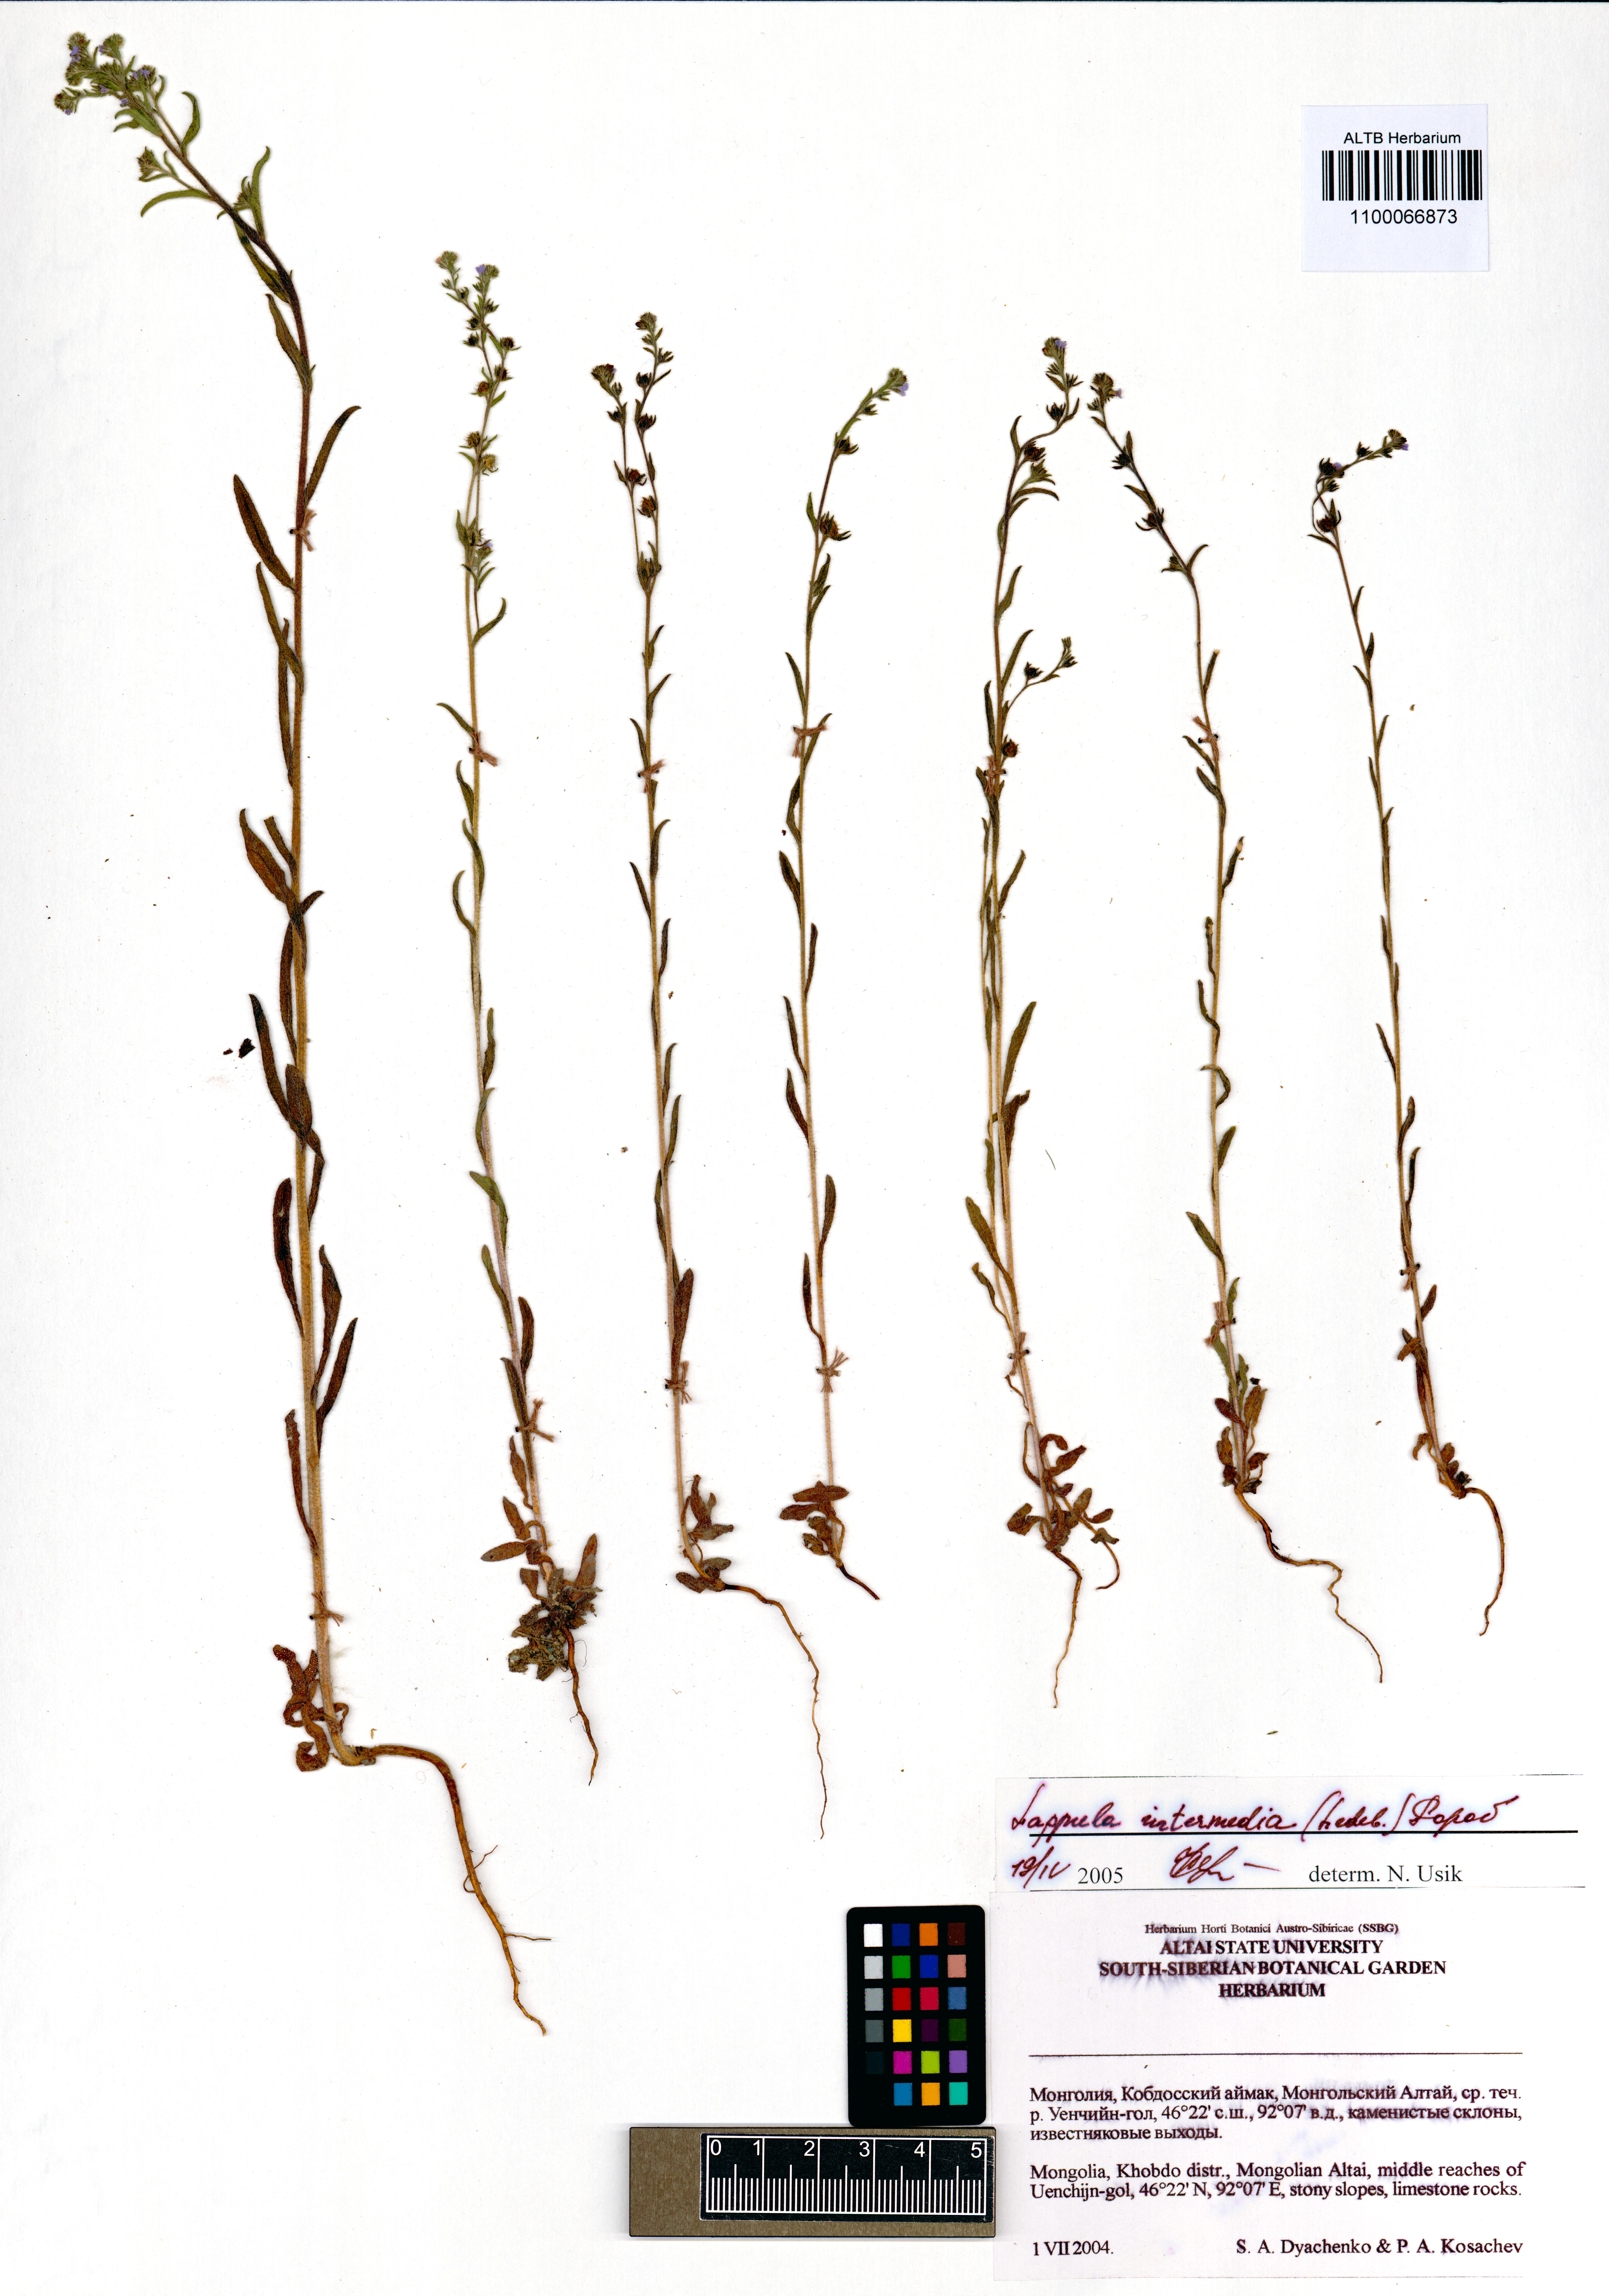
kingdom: Plantae
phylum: Tracheophyta
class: Magnoliopsida
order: Boraginales
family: Boraginaceae
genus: Lappula
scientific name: Lappula intermedia
